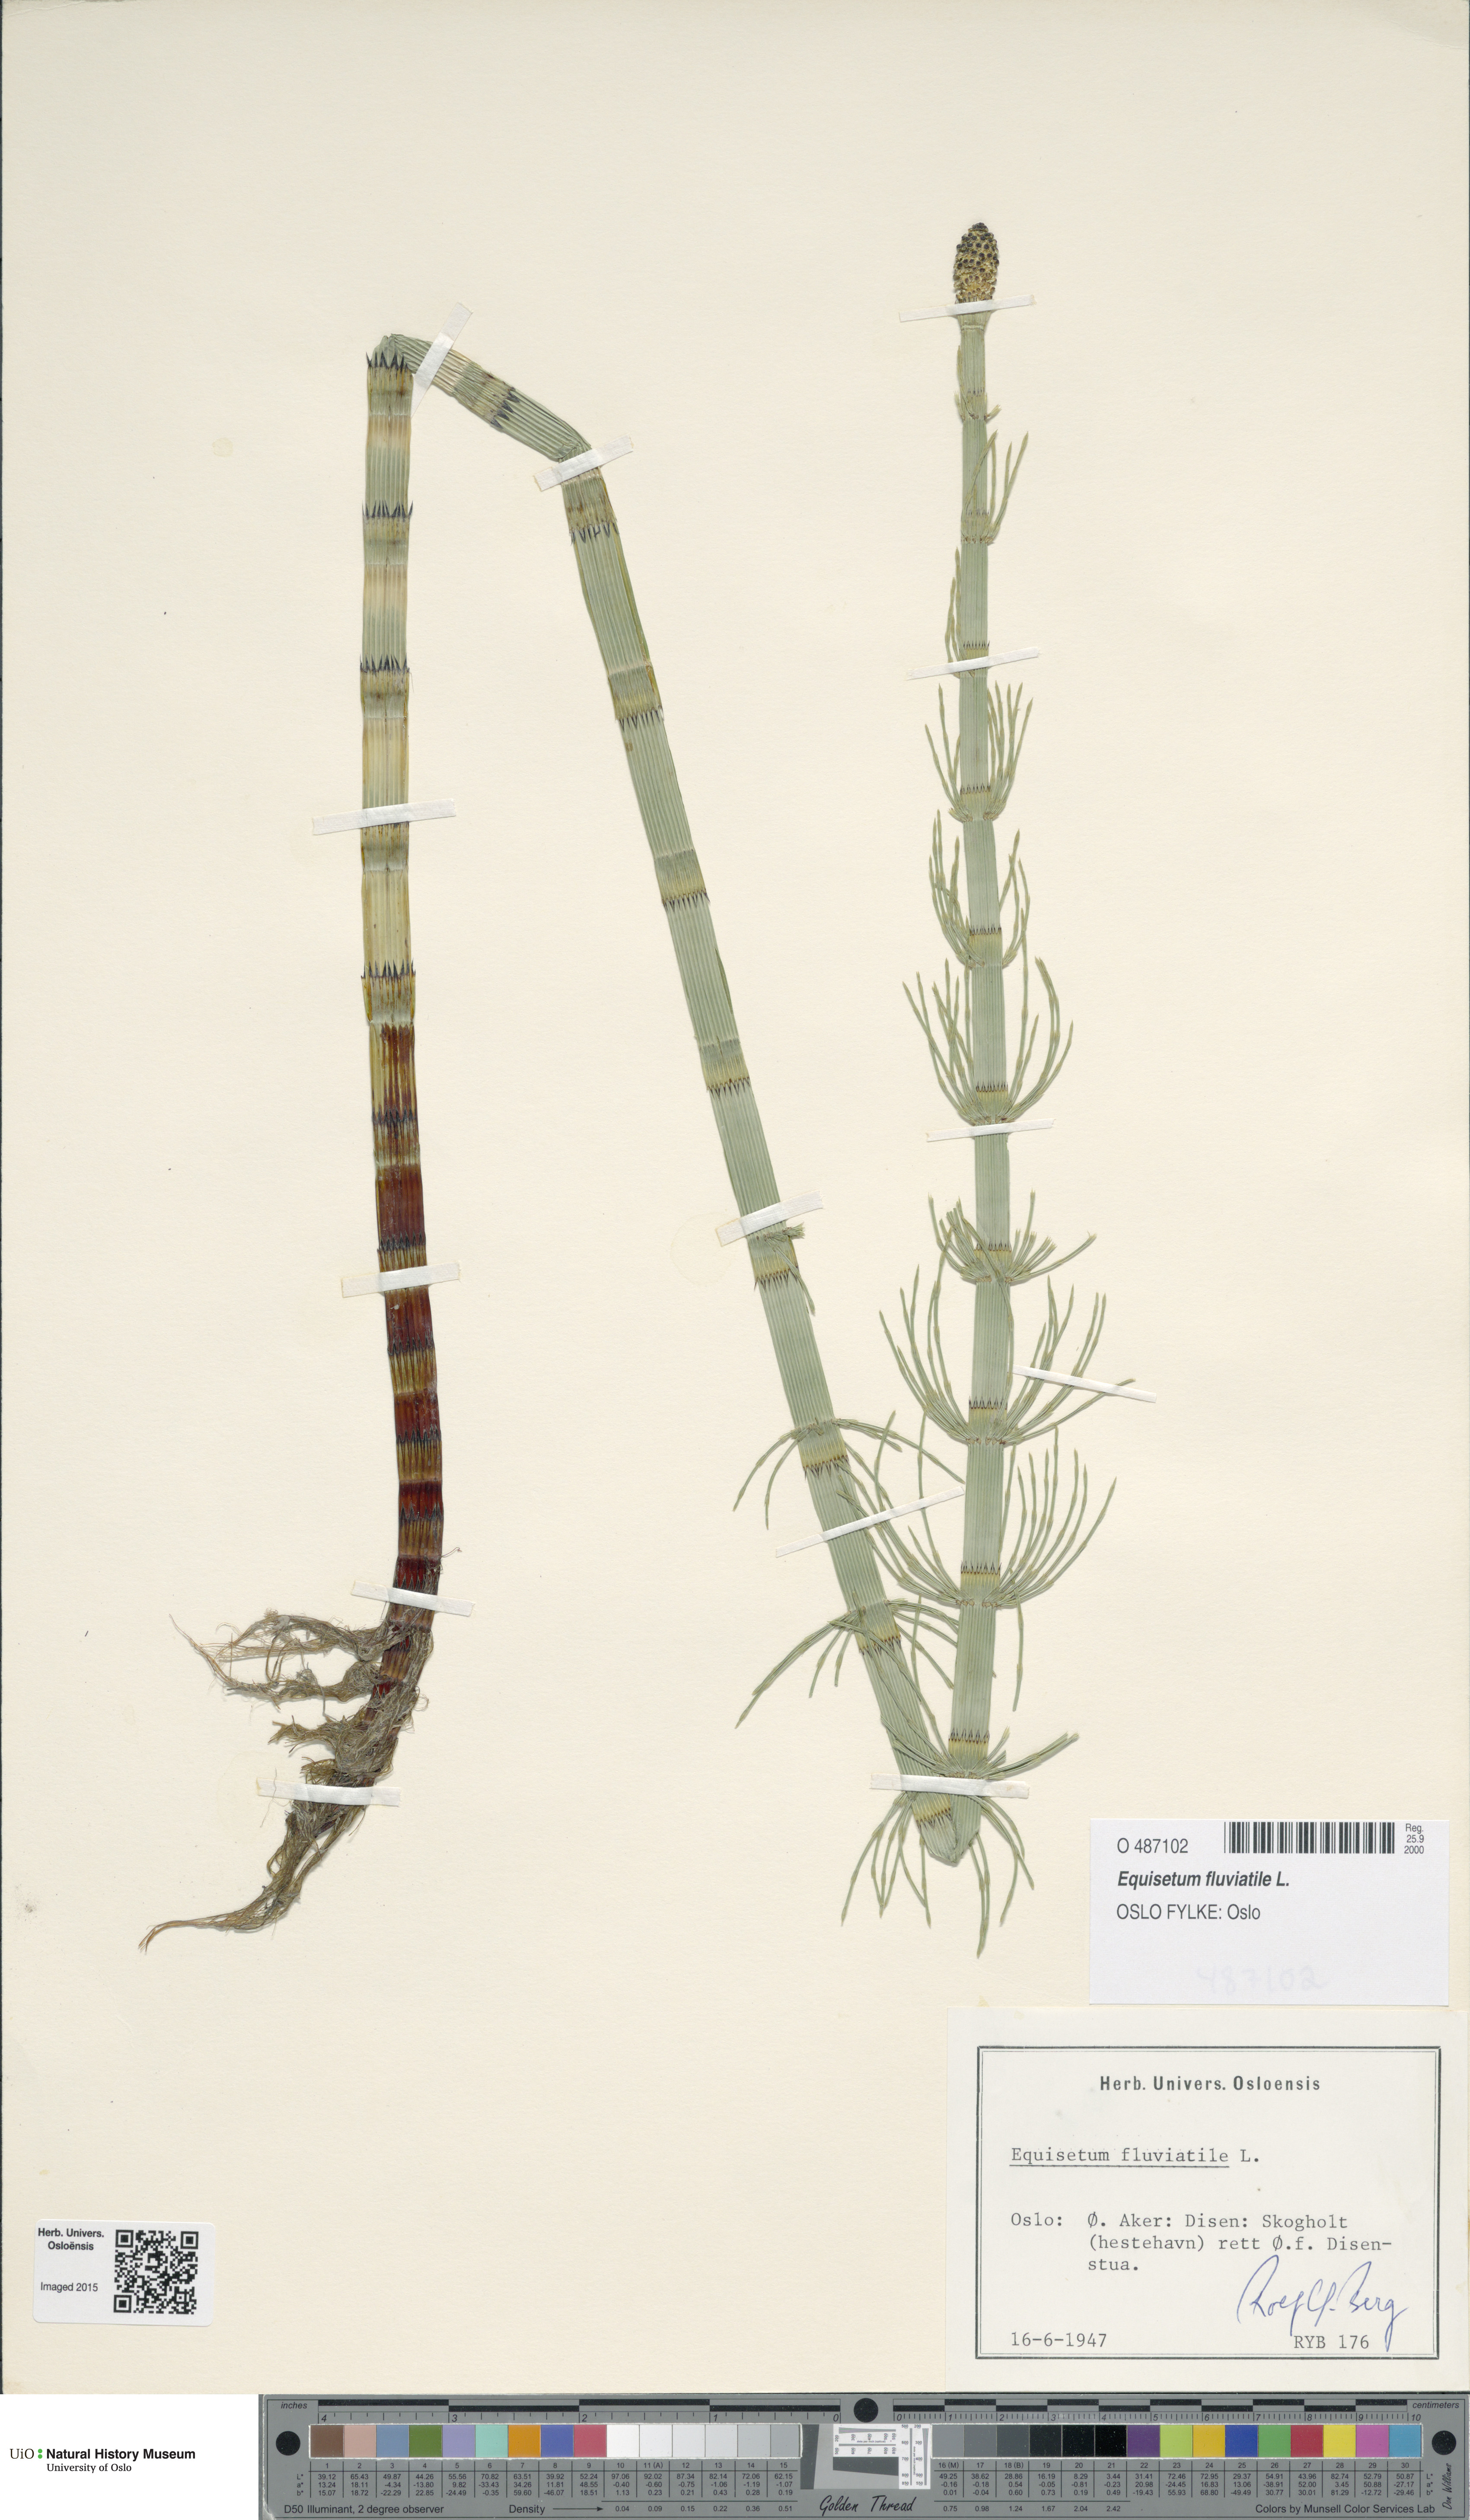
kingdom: Plantae
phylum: Tracheophyta
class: Polypodiopsida
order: Equisetales
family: Equisetaceae
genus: Equisetum
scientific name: Equisetum fluviatile
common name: Water horsetail
